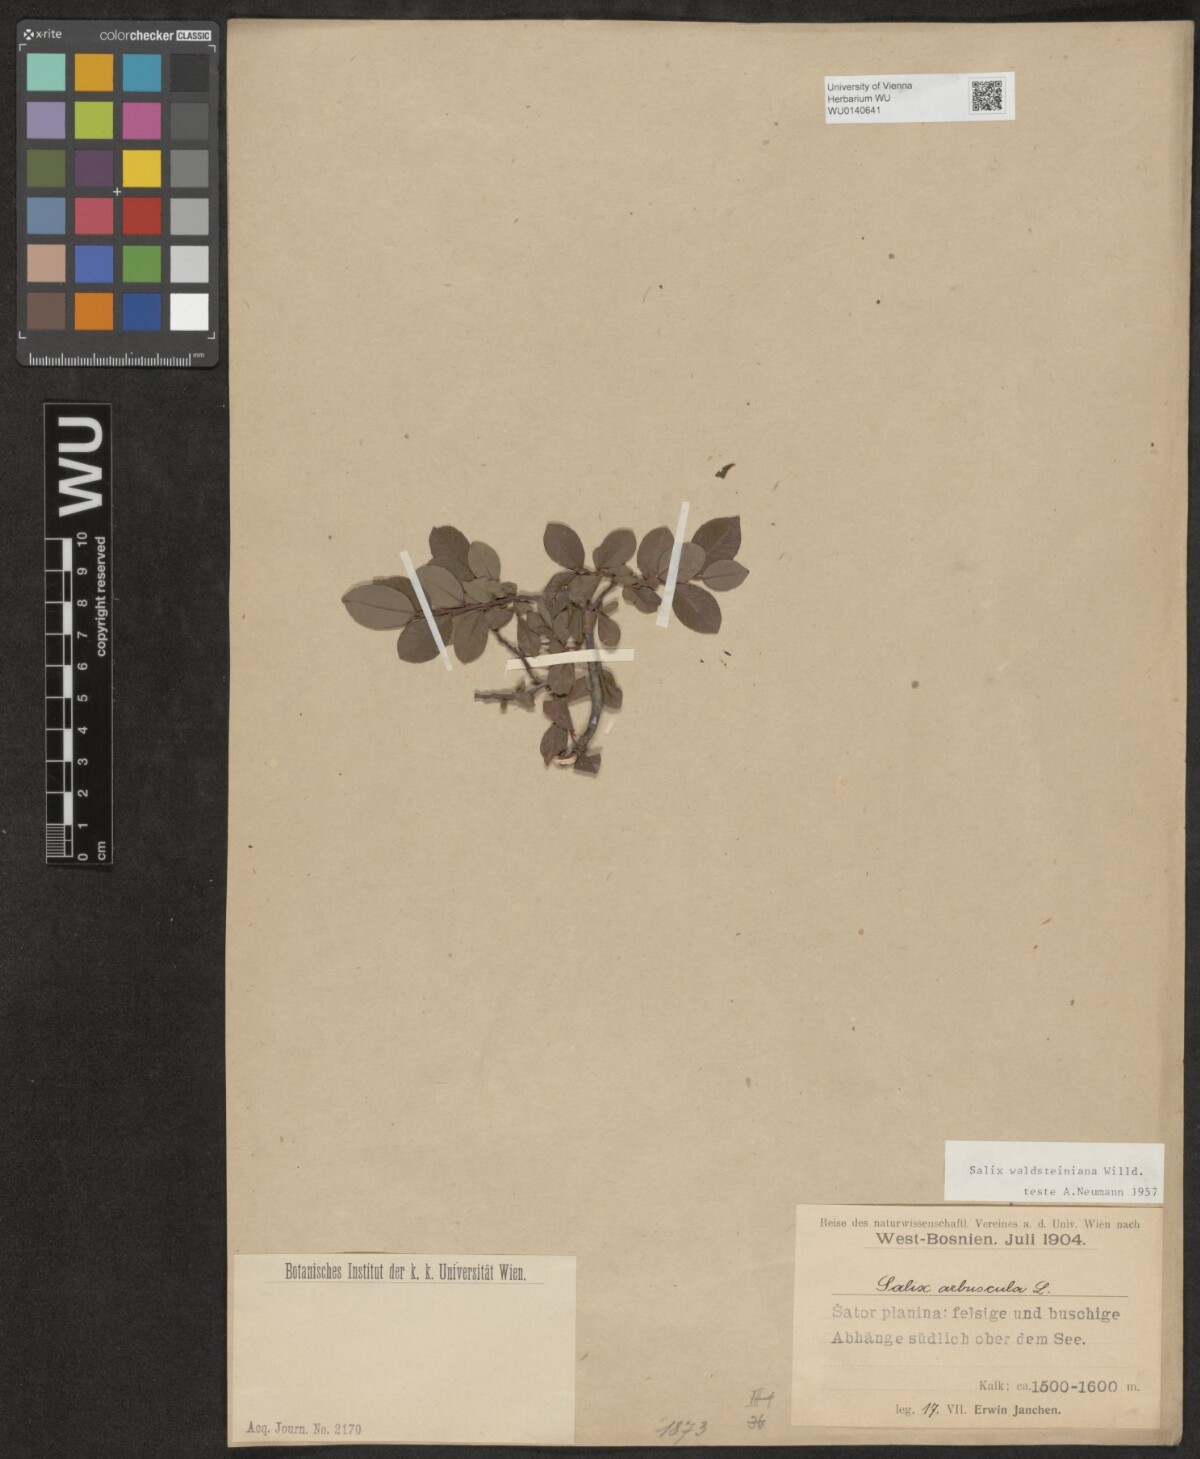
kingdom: Plantae
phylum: Tracheophyta
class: Magnoliopsida
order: Malpighiales
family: Salicaceae
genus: Salix
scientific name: Salix waldsteiniana
